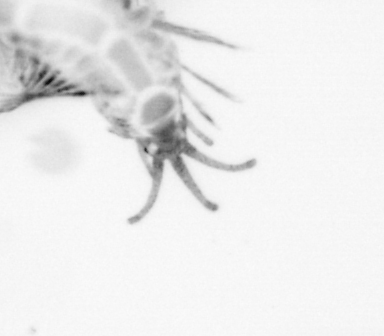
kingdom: Animalia
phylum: Annelida
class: Polychaeta
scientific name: Polychaeta
